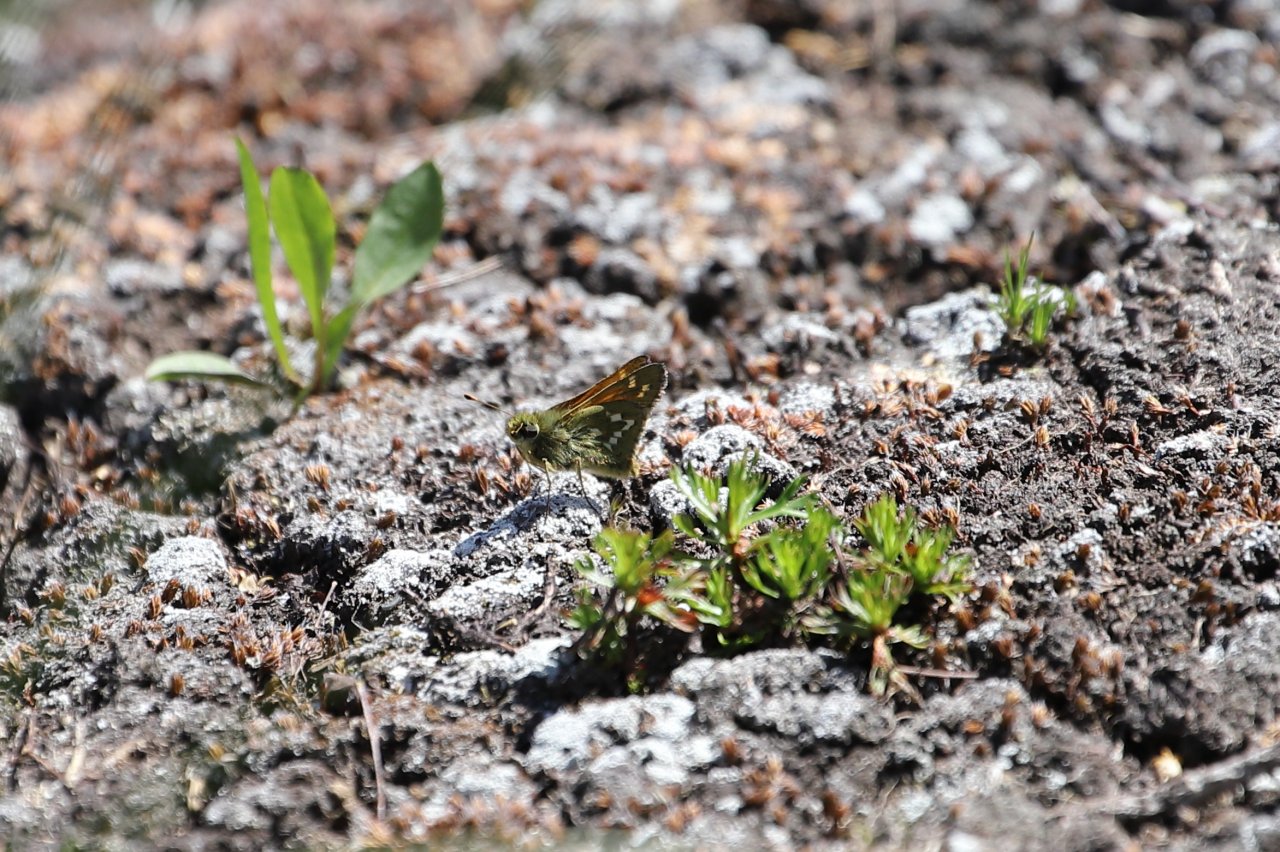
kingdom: Animalia
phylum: Arthropoda
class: Insecta
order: Lepidoptera
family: Hesperiidae
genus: Hesperia
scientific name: Hesperia comma
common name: Common Branded Skipper
